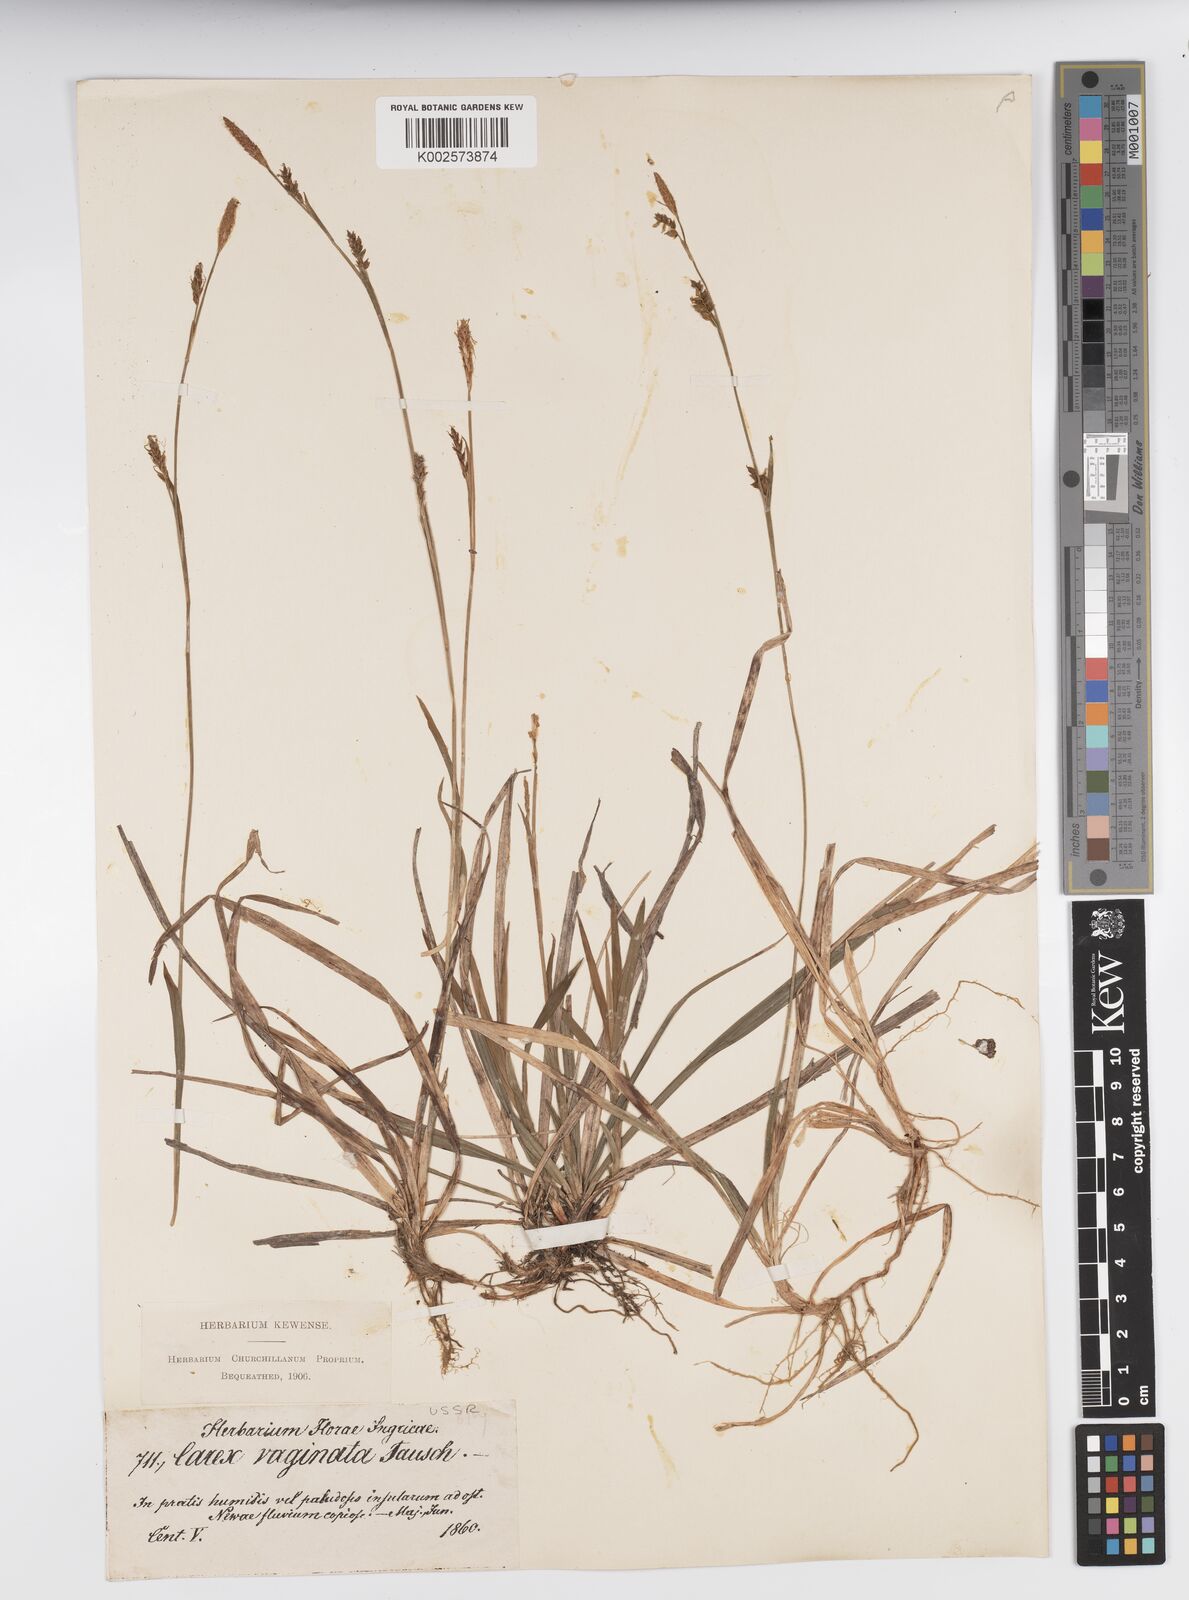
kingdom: Plantae
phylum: Tracheophyta
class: Liliopsida
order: Poales
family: Cyperaceae
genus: Carex
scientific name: Carex vaginata
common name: Sheathed sedge
